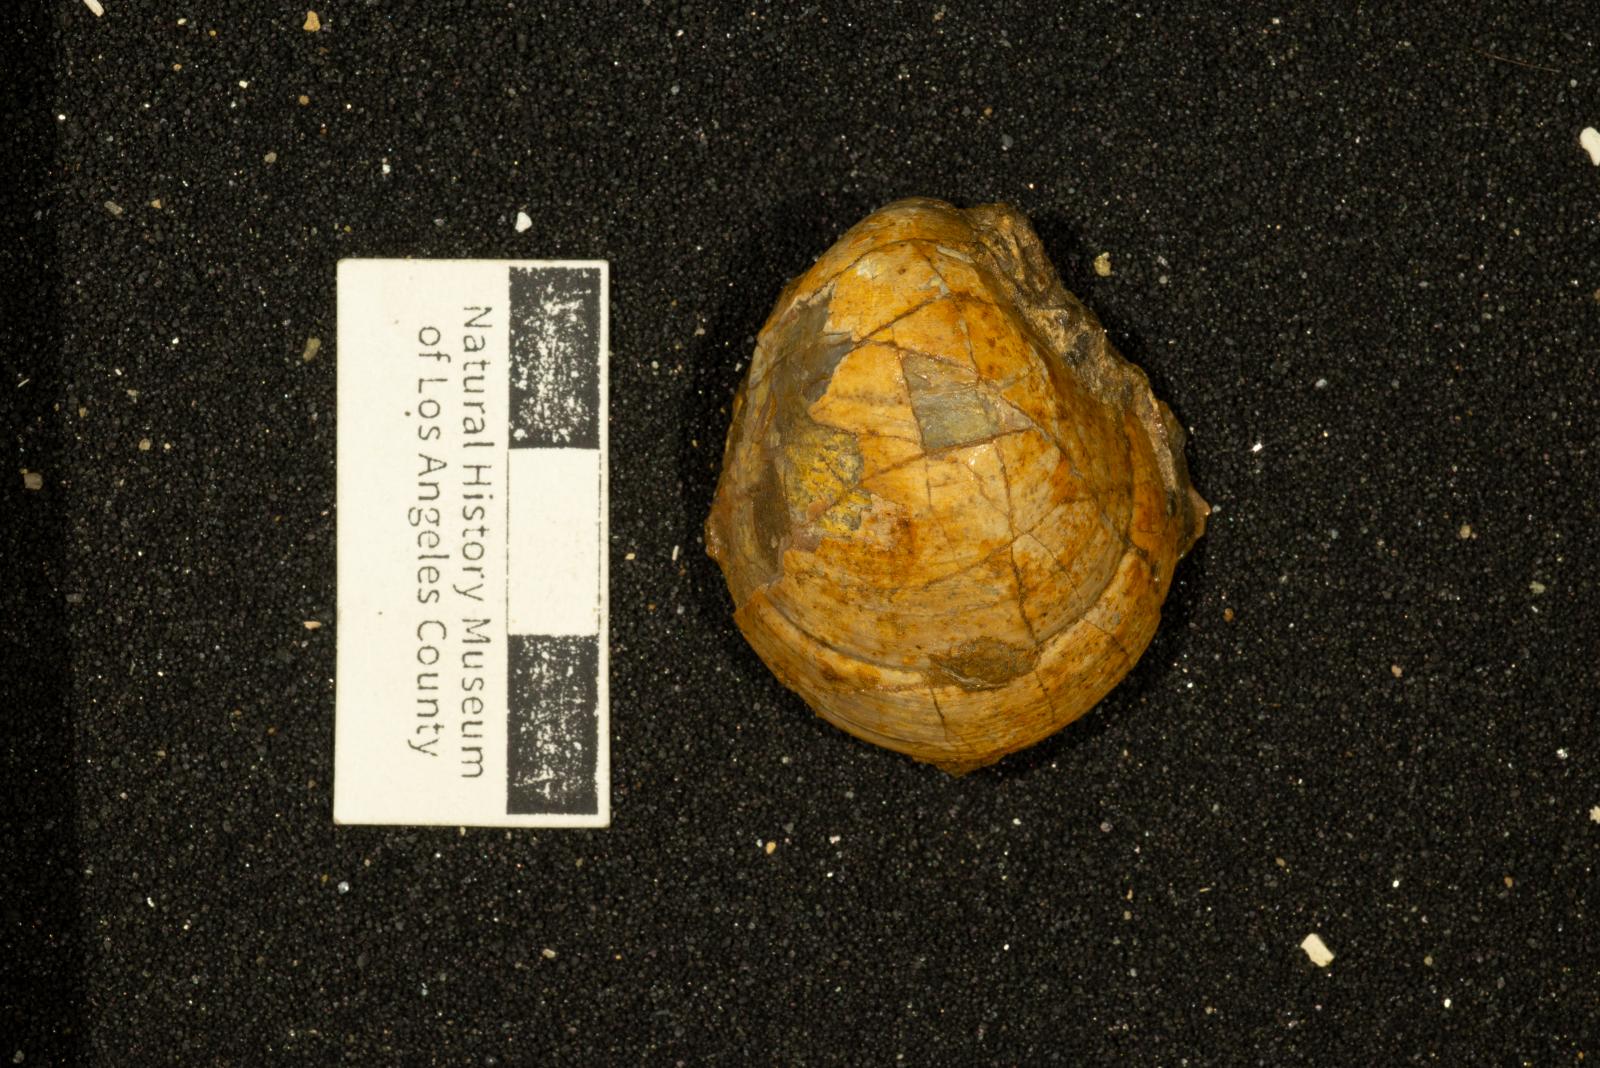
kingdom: Animalia
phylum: Mollusca
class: Bivalvia
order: Adapedonta
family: Edmondiidae
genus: Clisocolus
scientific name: Clisocolus dubius
